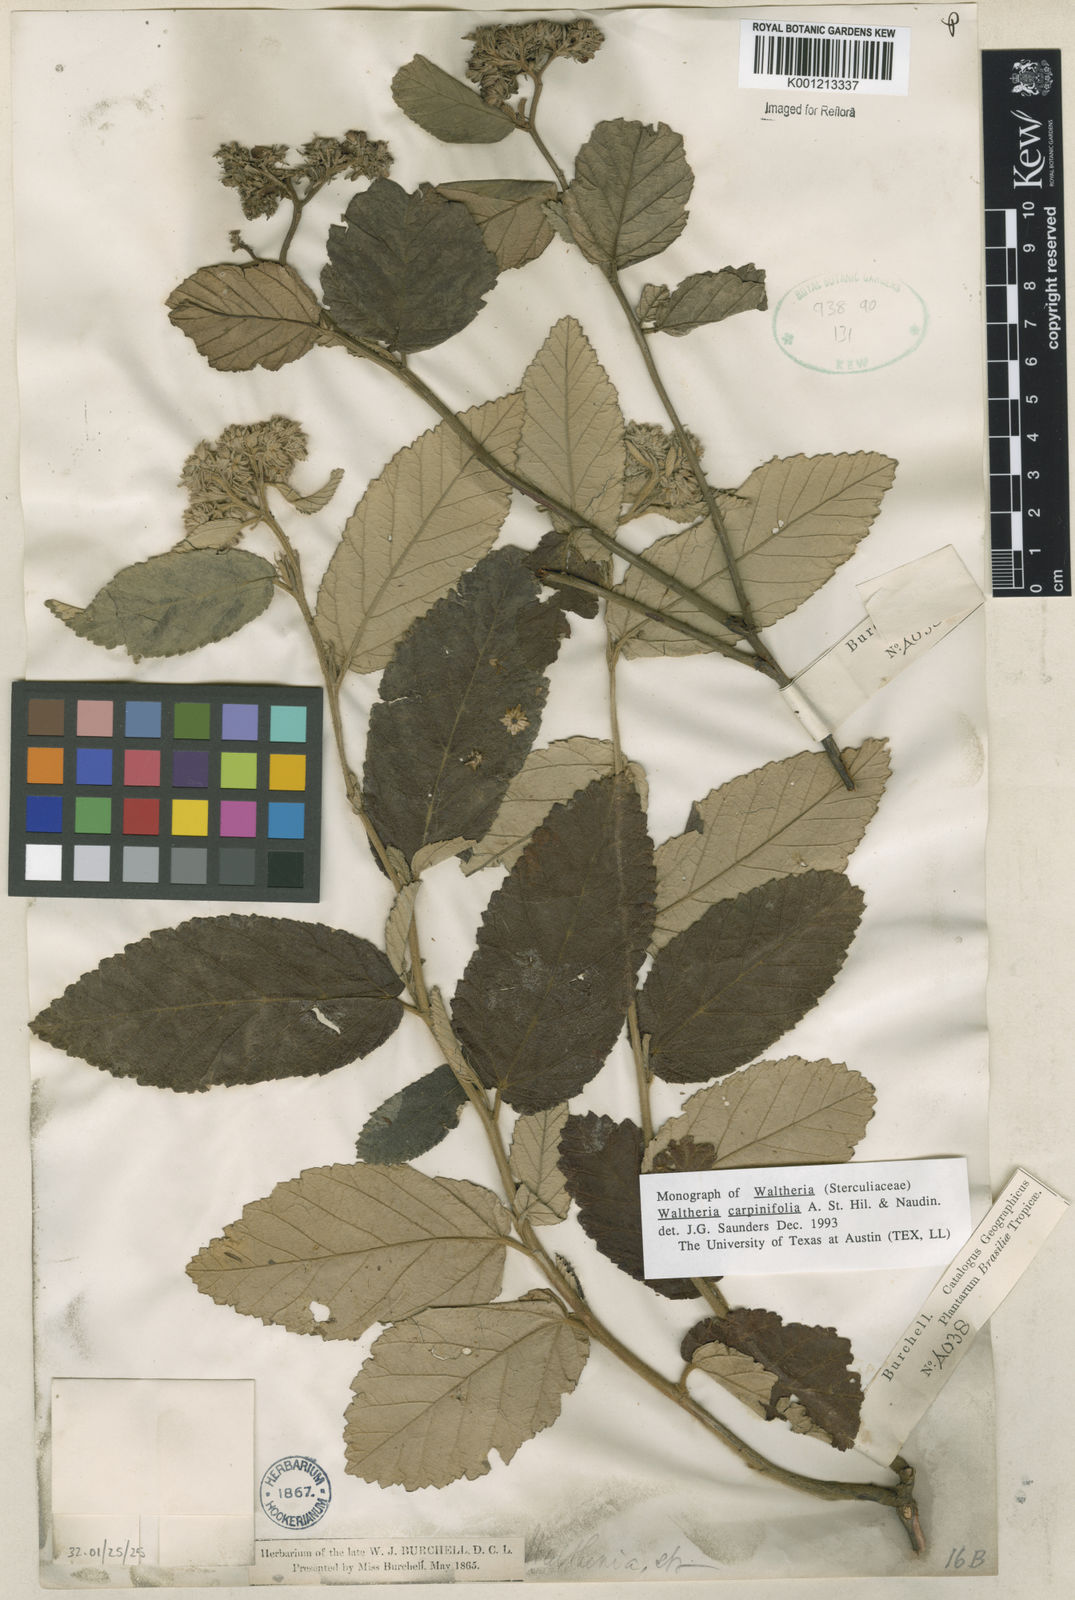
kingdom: Plantae
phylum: Tracheophyta
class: Magnoliopsida
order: Malvales
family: Malvaceae
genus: Waltheria
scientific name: Waltheria carpinifolia
